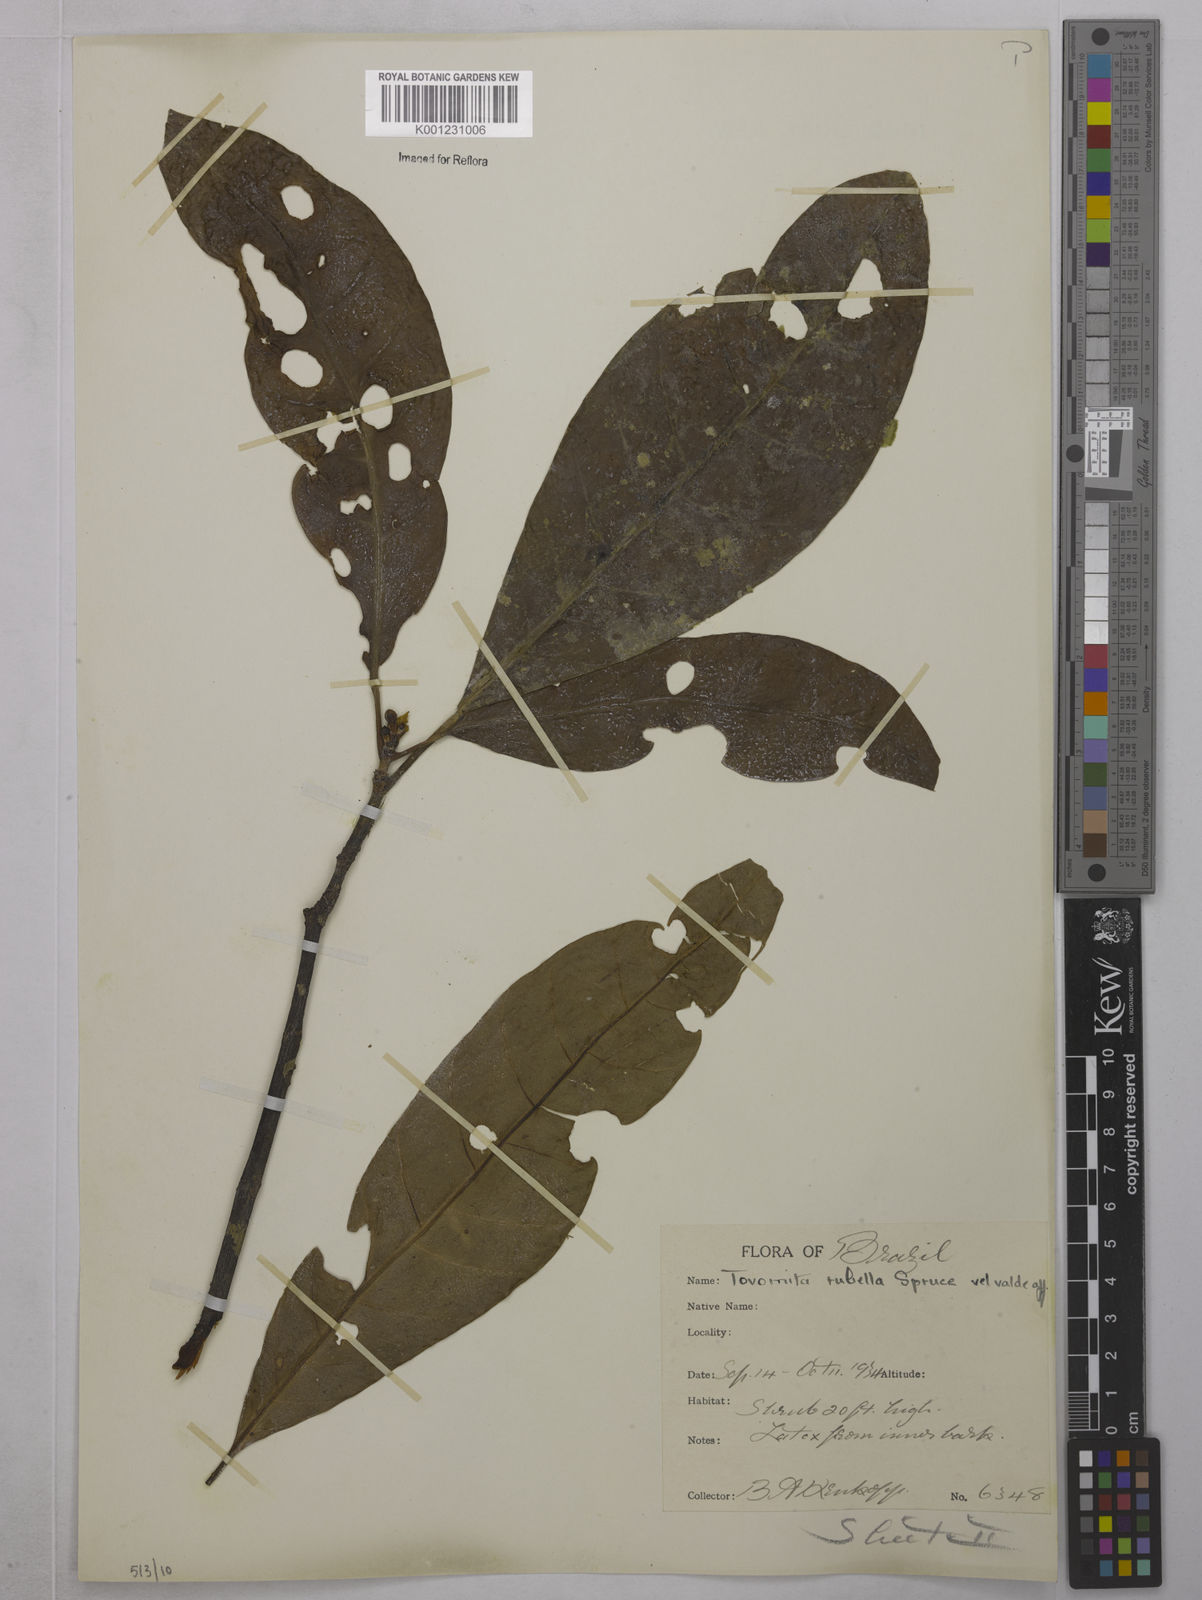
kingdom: Plantae
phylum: Tracheophyta
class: Magnoliopsida
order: Malpighiales
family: Clusiaceae
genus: Tovomita
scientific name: Tovomita rubella
